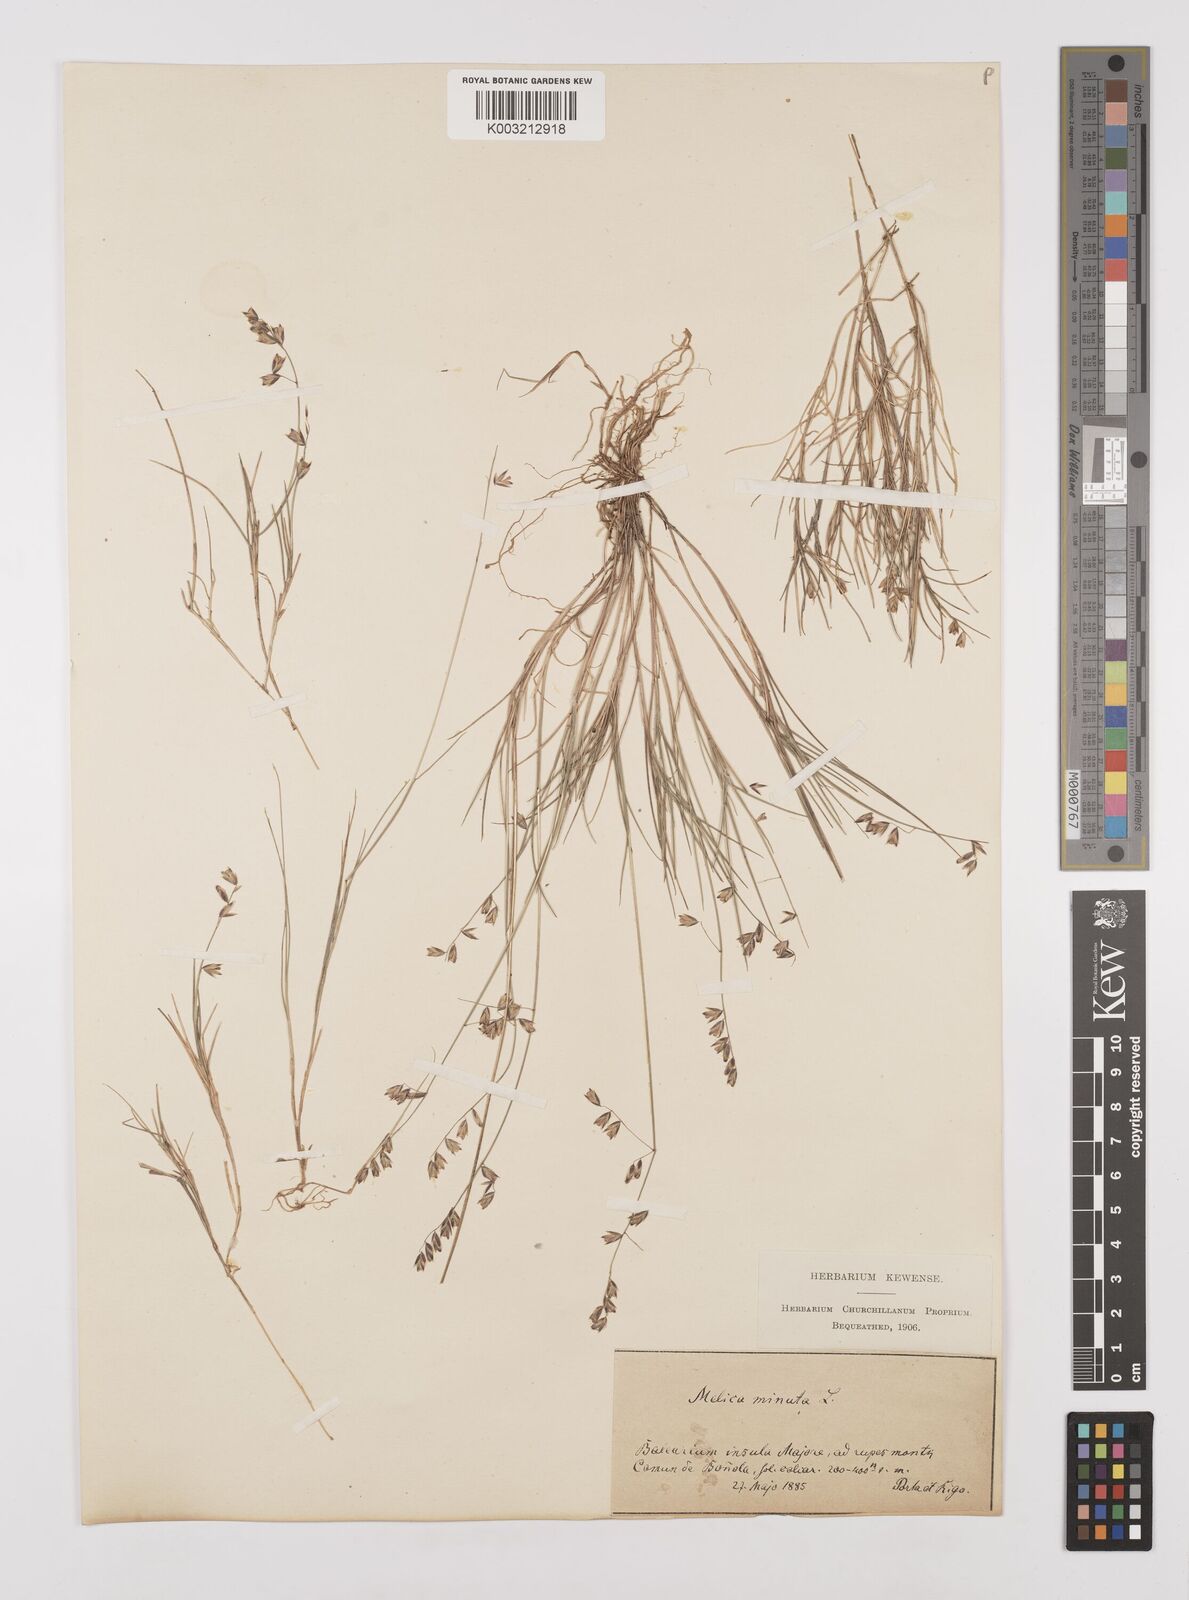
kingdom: Plantae
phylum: Tracheophyta
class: Liliopsida
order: Poales
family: Poaceae
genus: Melica
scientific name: Melica minuta
